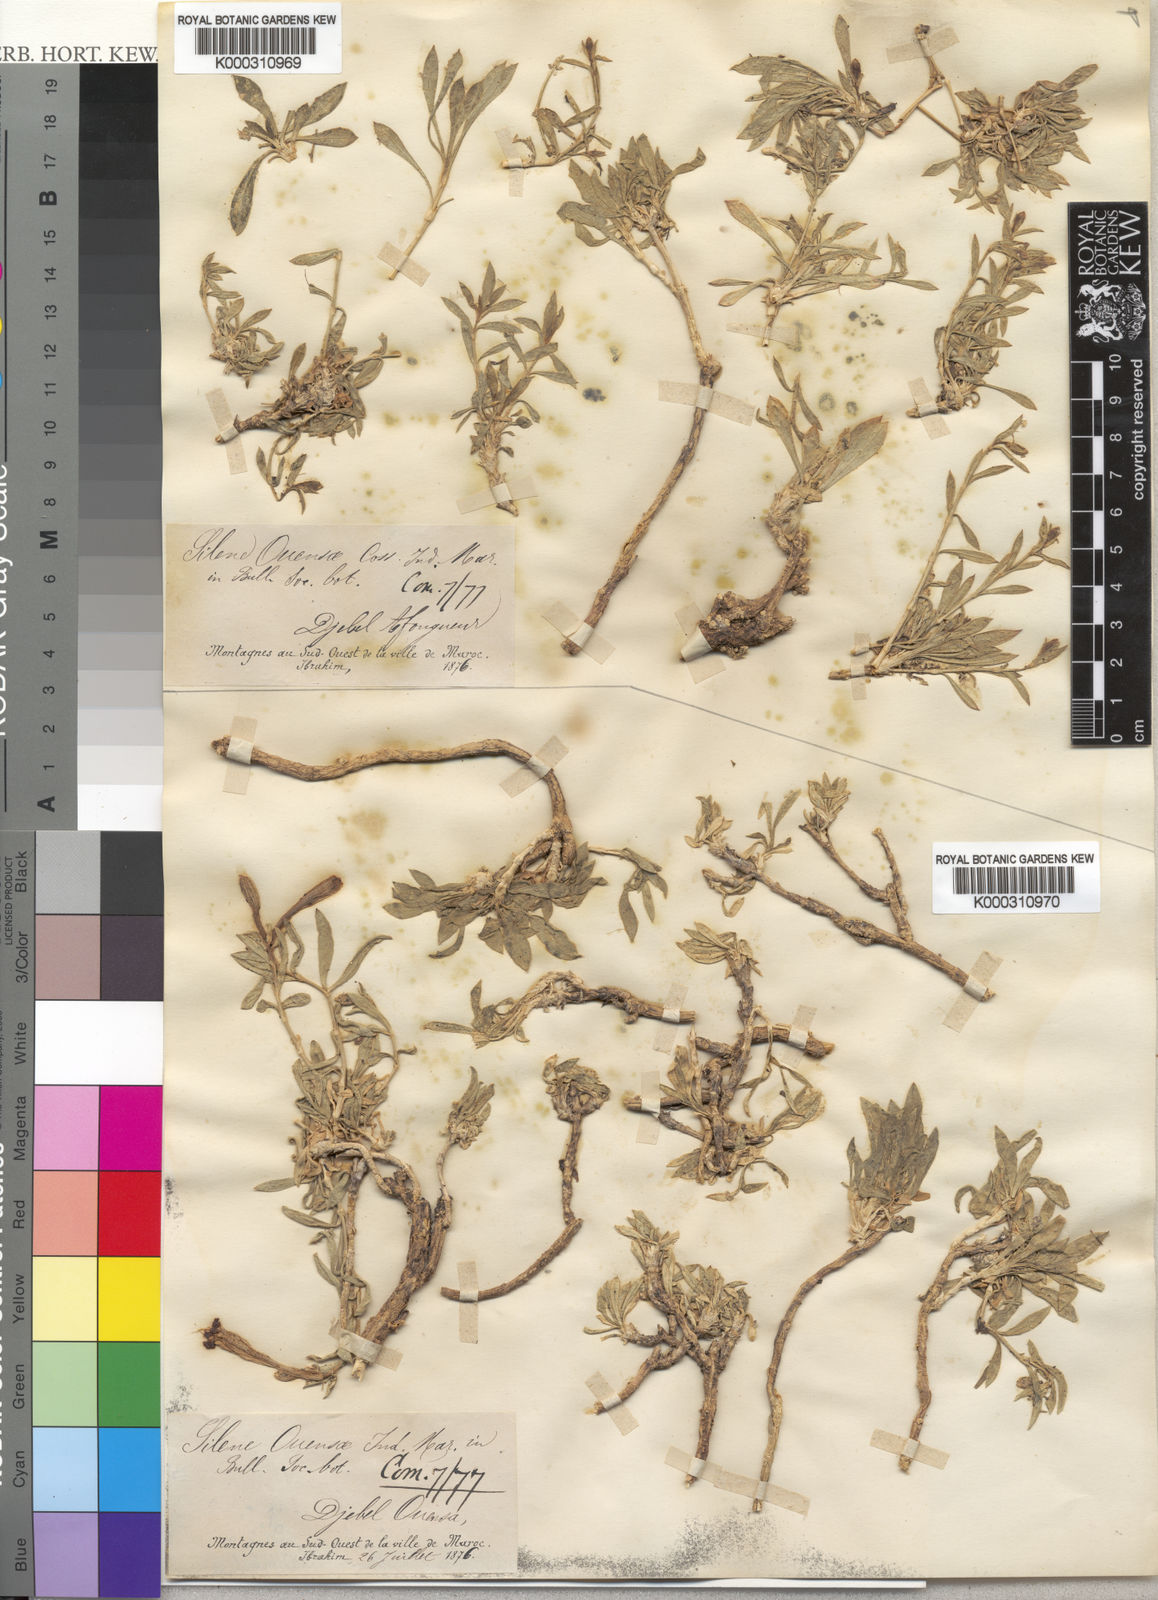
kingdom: Plantae
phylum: Tracheophyta
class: Magnoliopsida
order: Caryophyllales
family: Caryophyllaceae
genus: Silene
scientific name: Silene boryi
